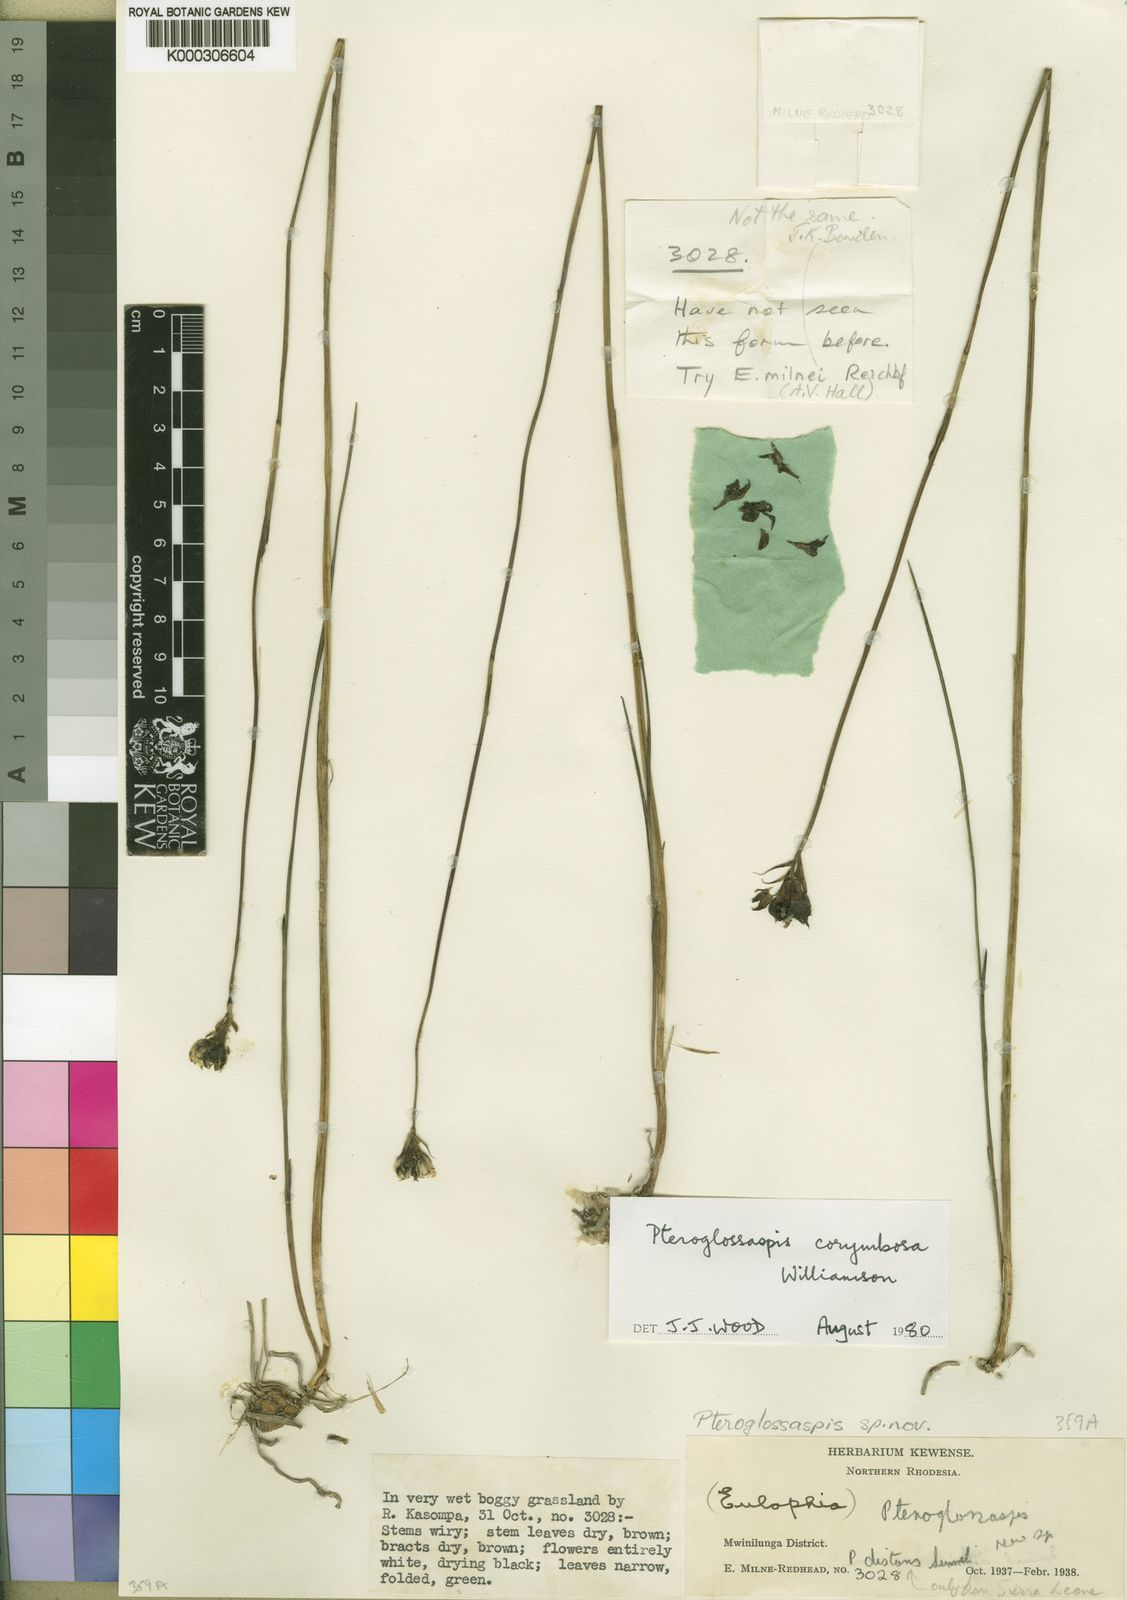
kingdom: Plantae
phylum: Tracheophyta
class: Liliopsida
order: Asparagales
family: Orchidaceae
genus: Eulophia
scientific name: Eulophia corymbifera
